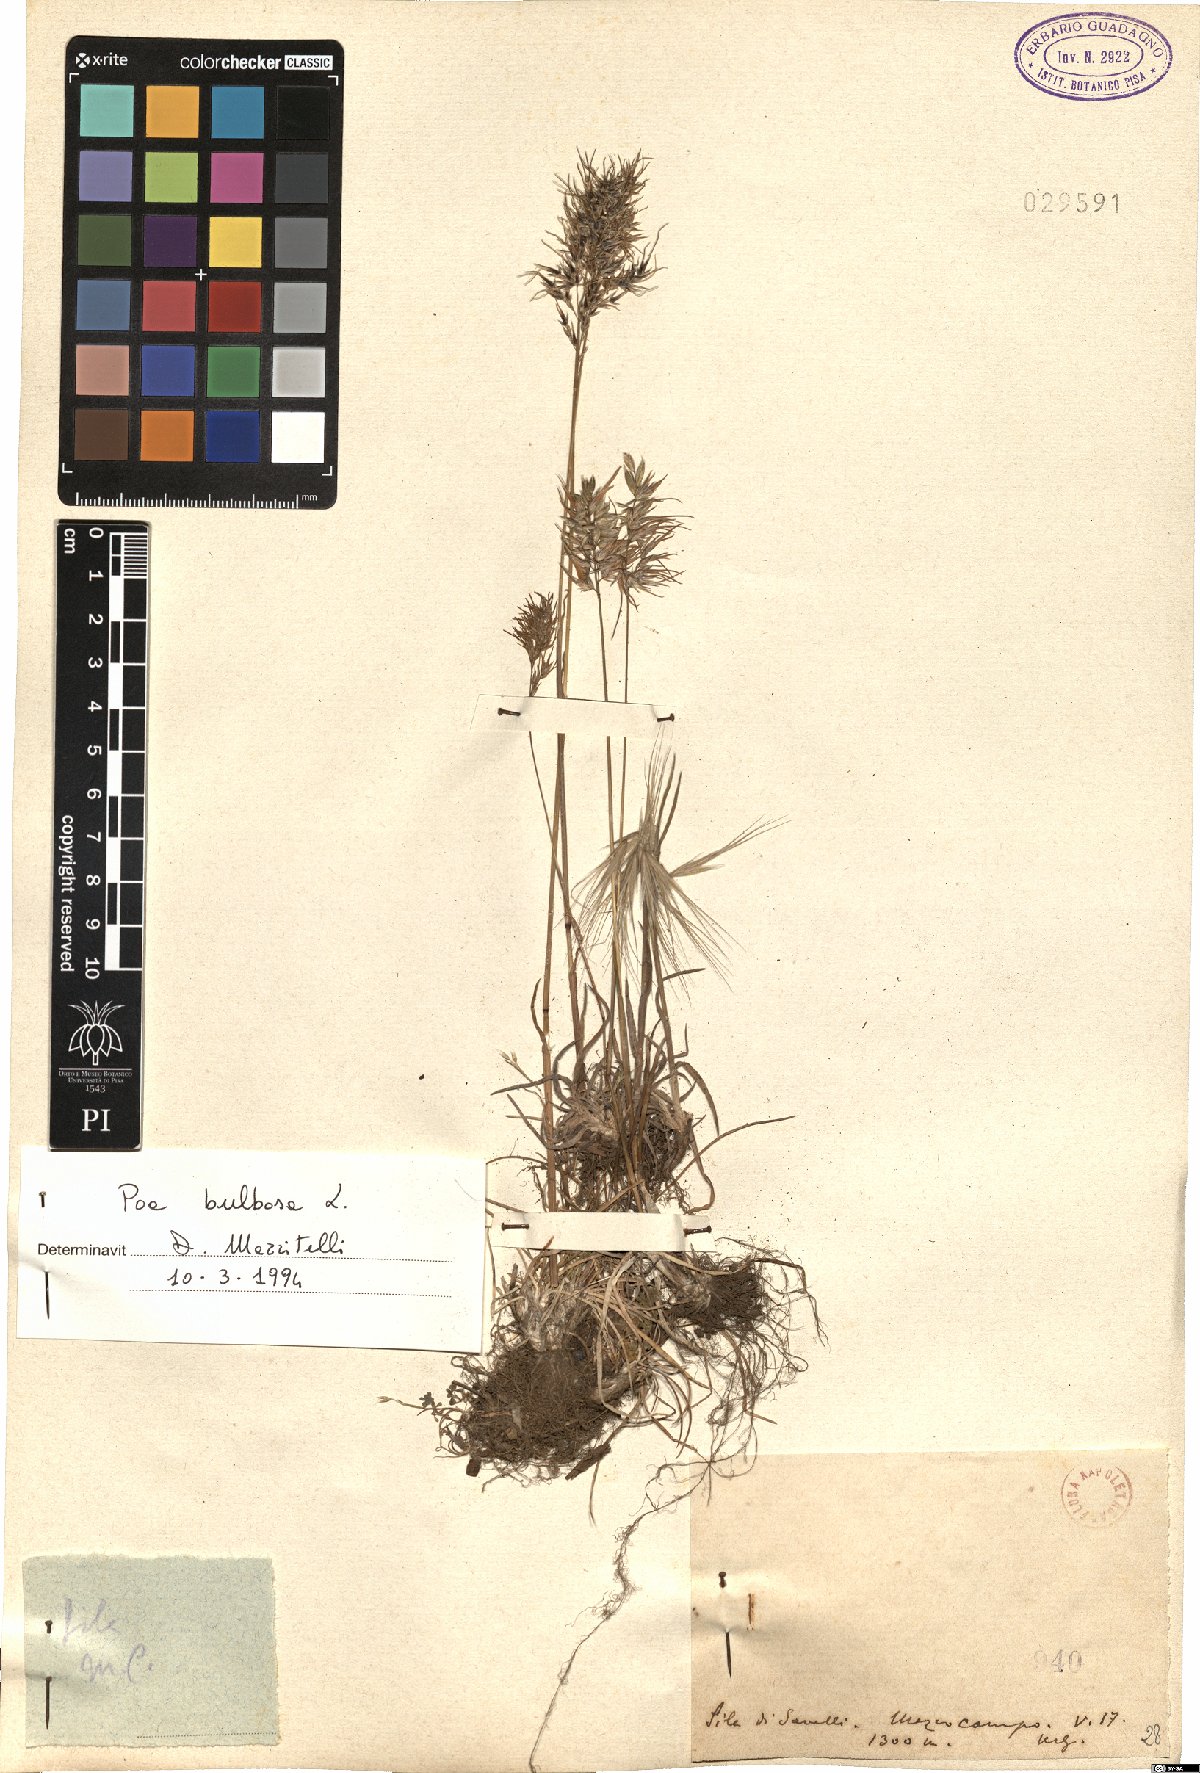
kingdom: Plantae
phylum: Tracheophyta
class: Liliopsida
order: Poales
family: Poaceae
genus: Poa
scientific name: Poa bulbosa
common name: Bulbous bluegrass
